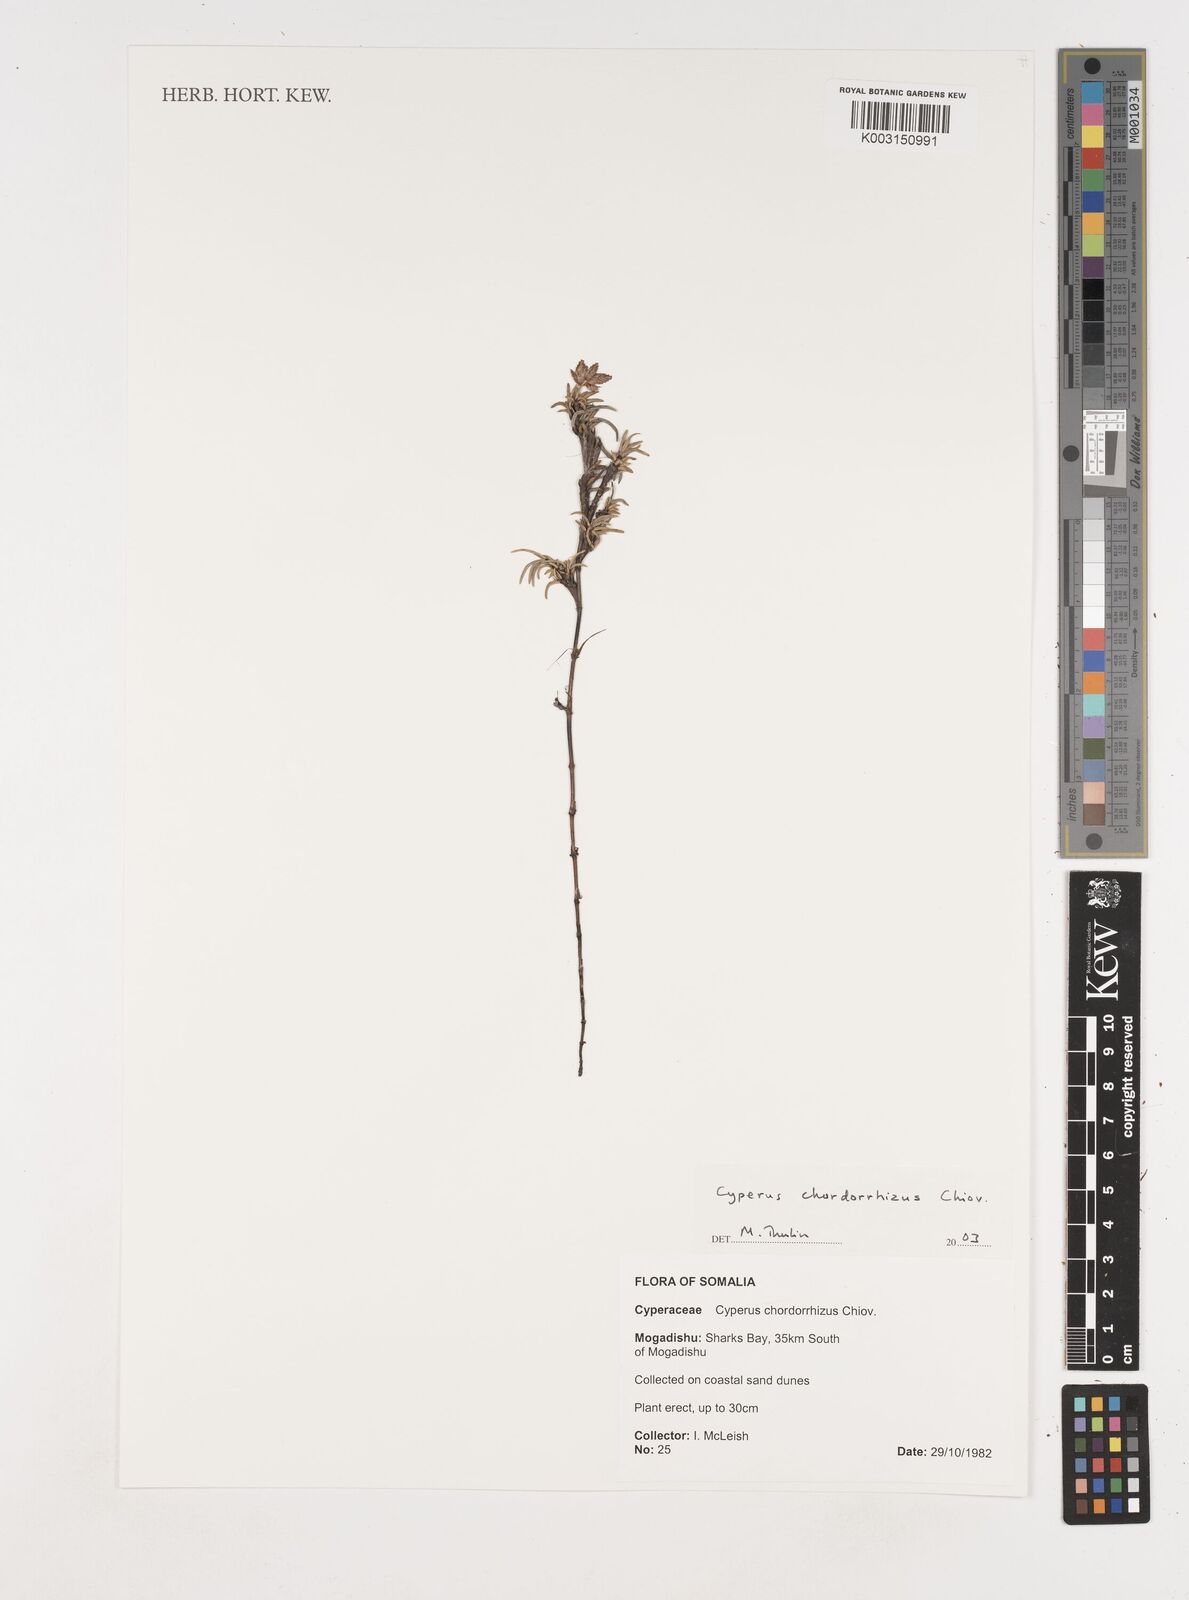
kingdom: Plantae
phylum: Tracheophyta
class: Liliopsida
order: Poales
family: Cyperaceae
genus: Cyperus
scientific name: Cyperus chordorrhizus
